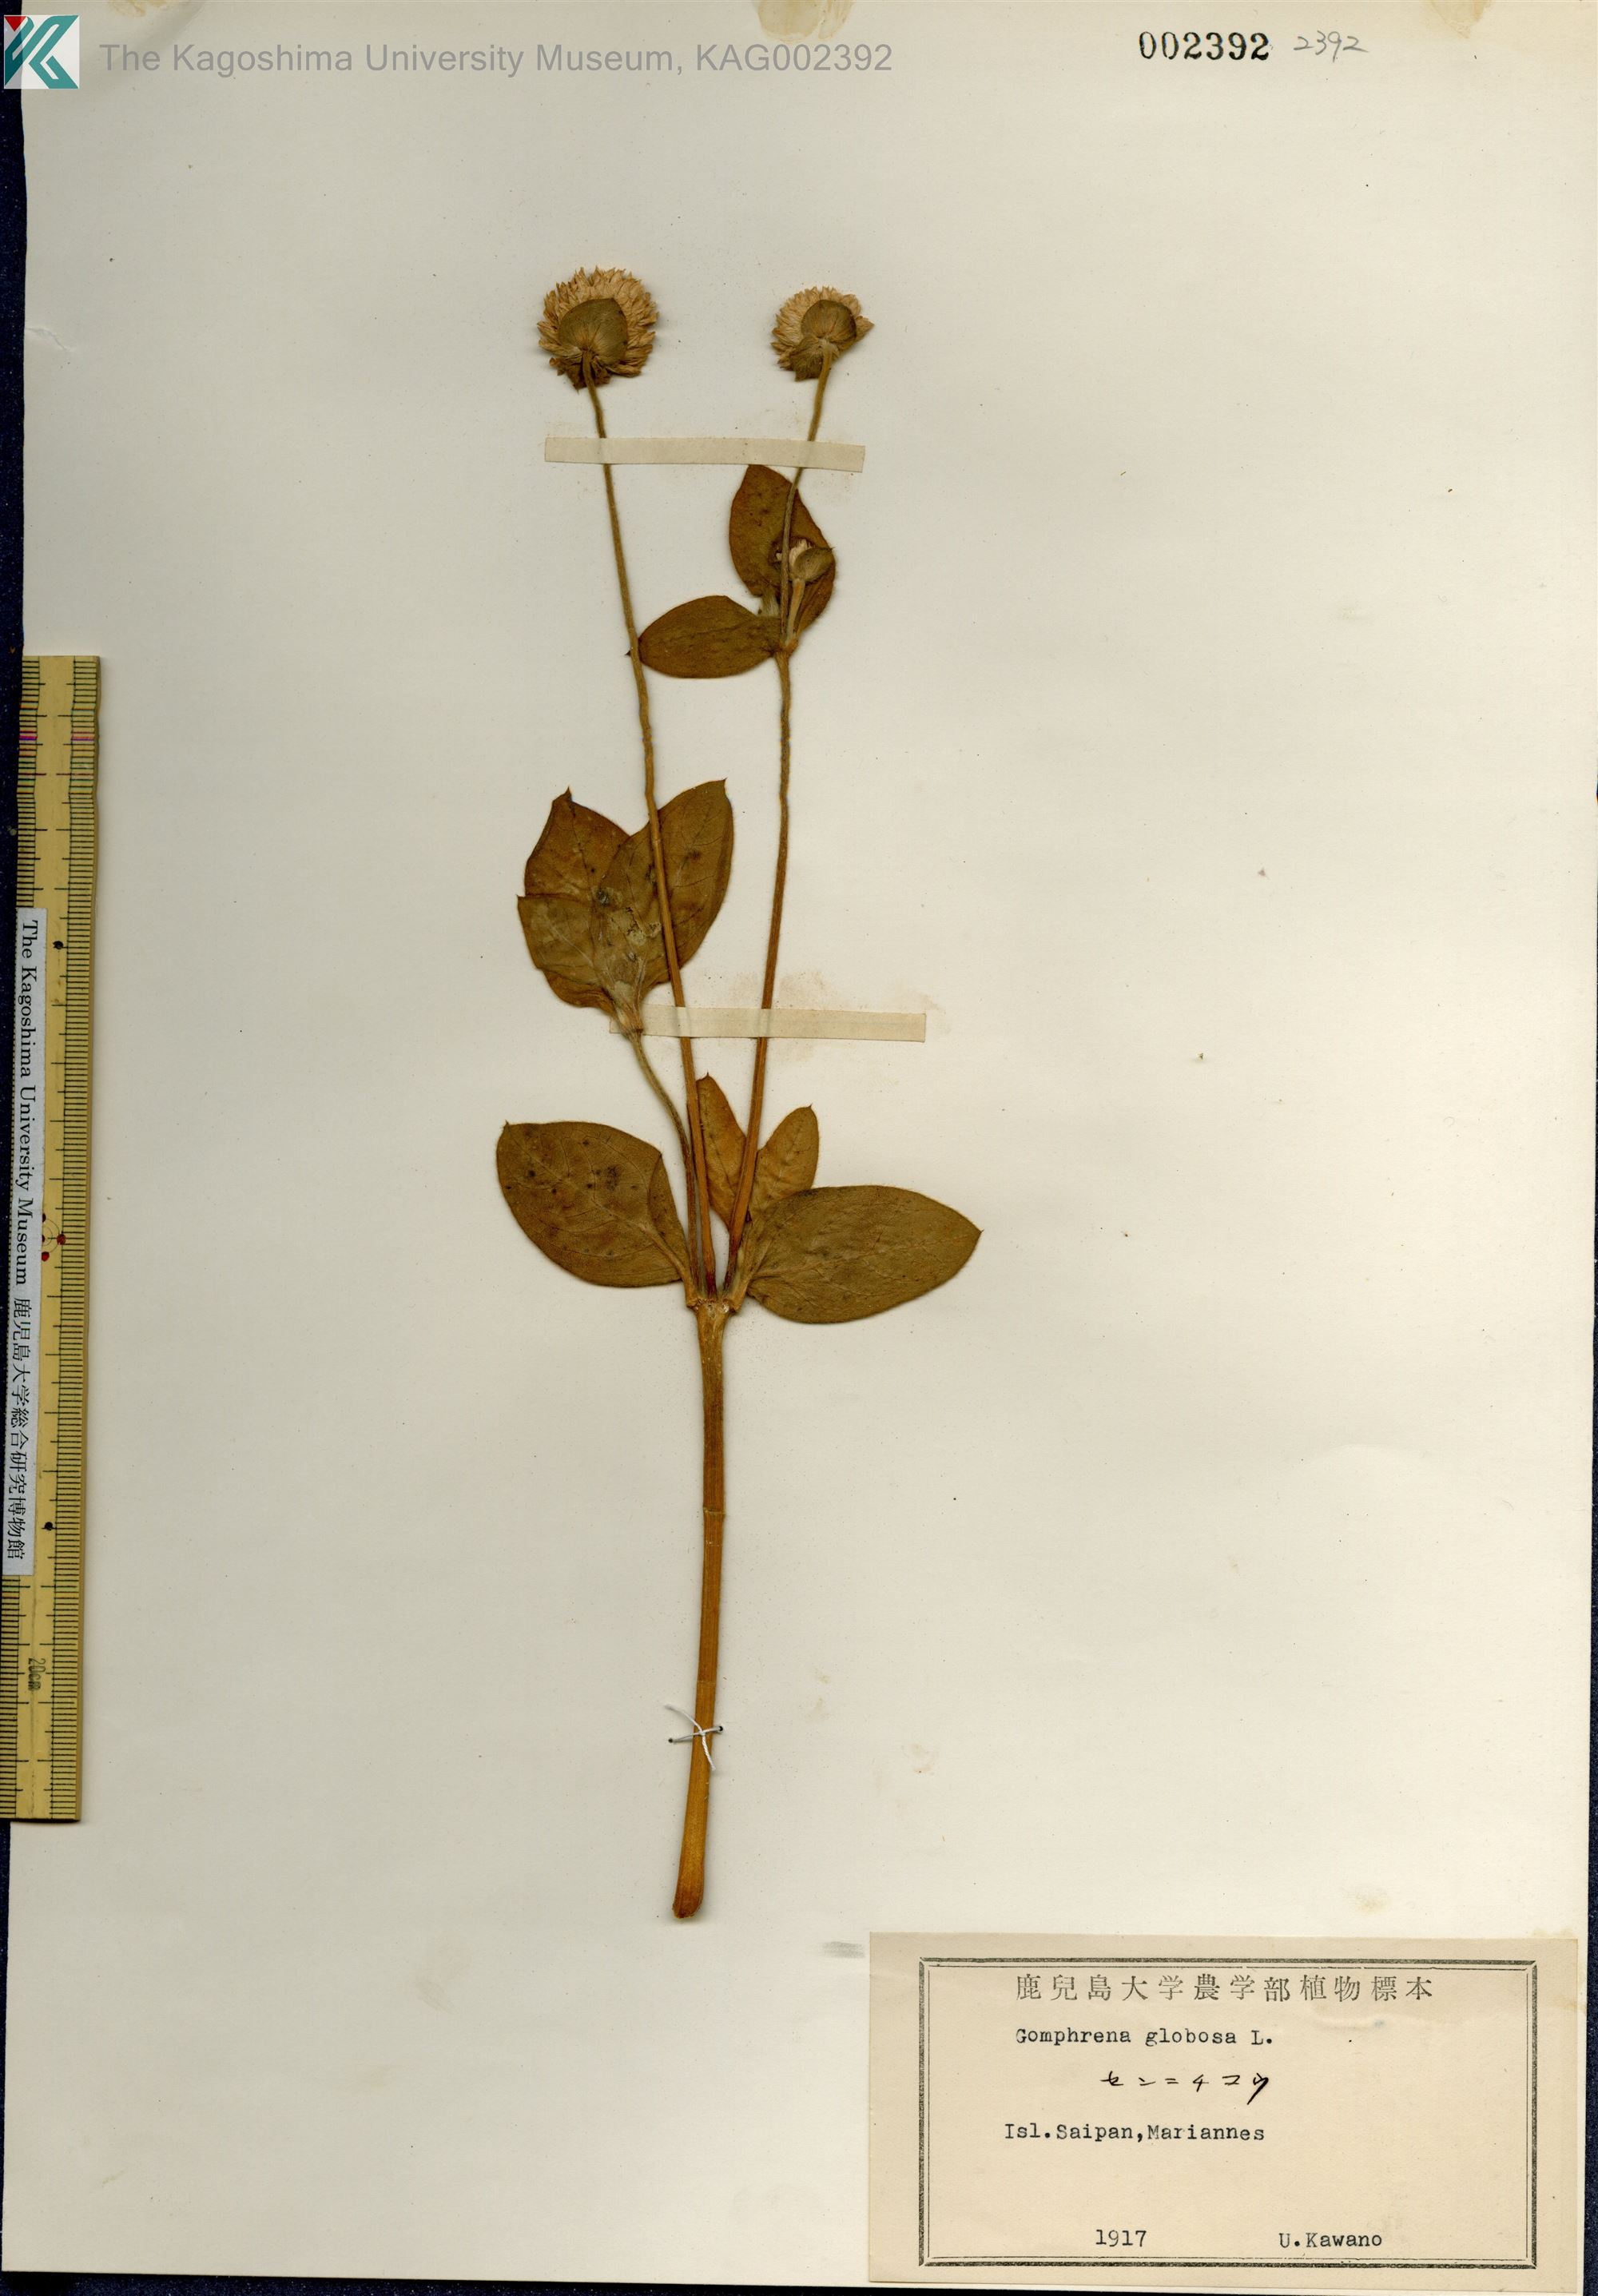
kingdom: Plantae
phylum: Tracheophyta
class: Magnoliopsida
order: Caryophyllales
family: Amaranthaceae
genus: Gomphrena
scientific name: Gomphrena globosa
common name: Common globe amaranth
